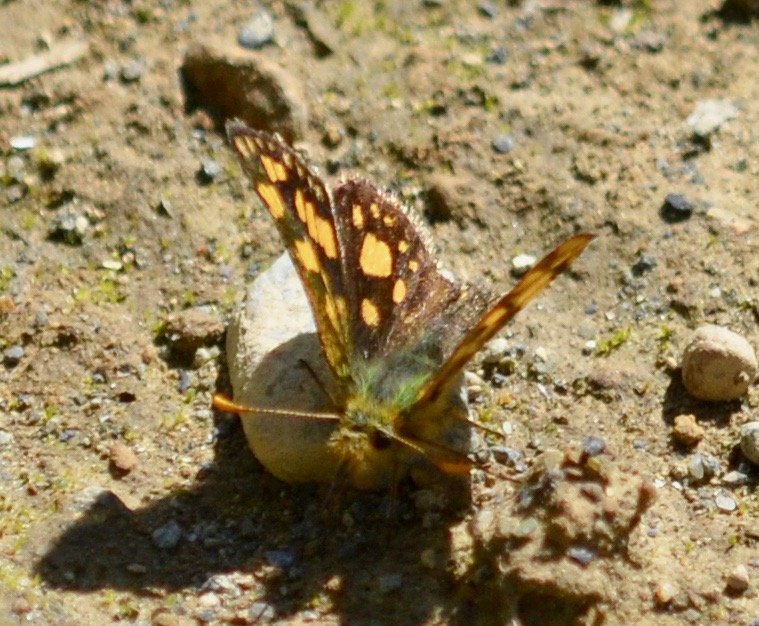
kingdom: Animalia
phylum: Arthropoda
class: Insecta
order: Lepidoptera
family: Hesperiidae
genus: Carterocephalus
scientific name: Carterocephalus palaemon
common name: Chequered Skipper
